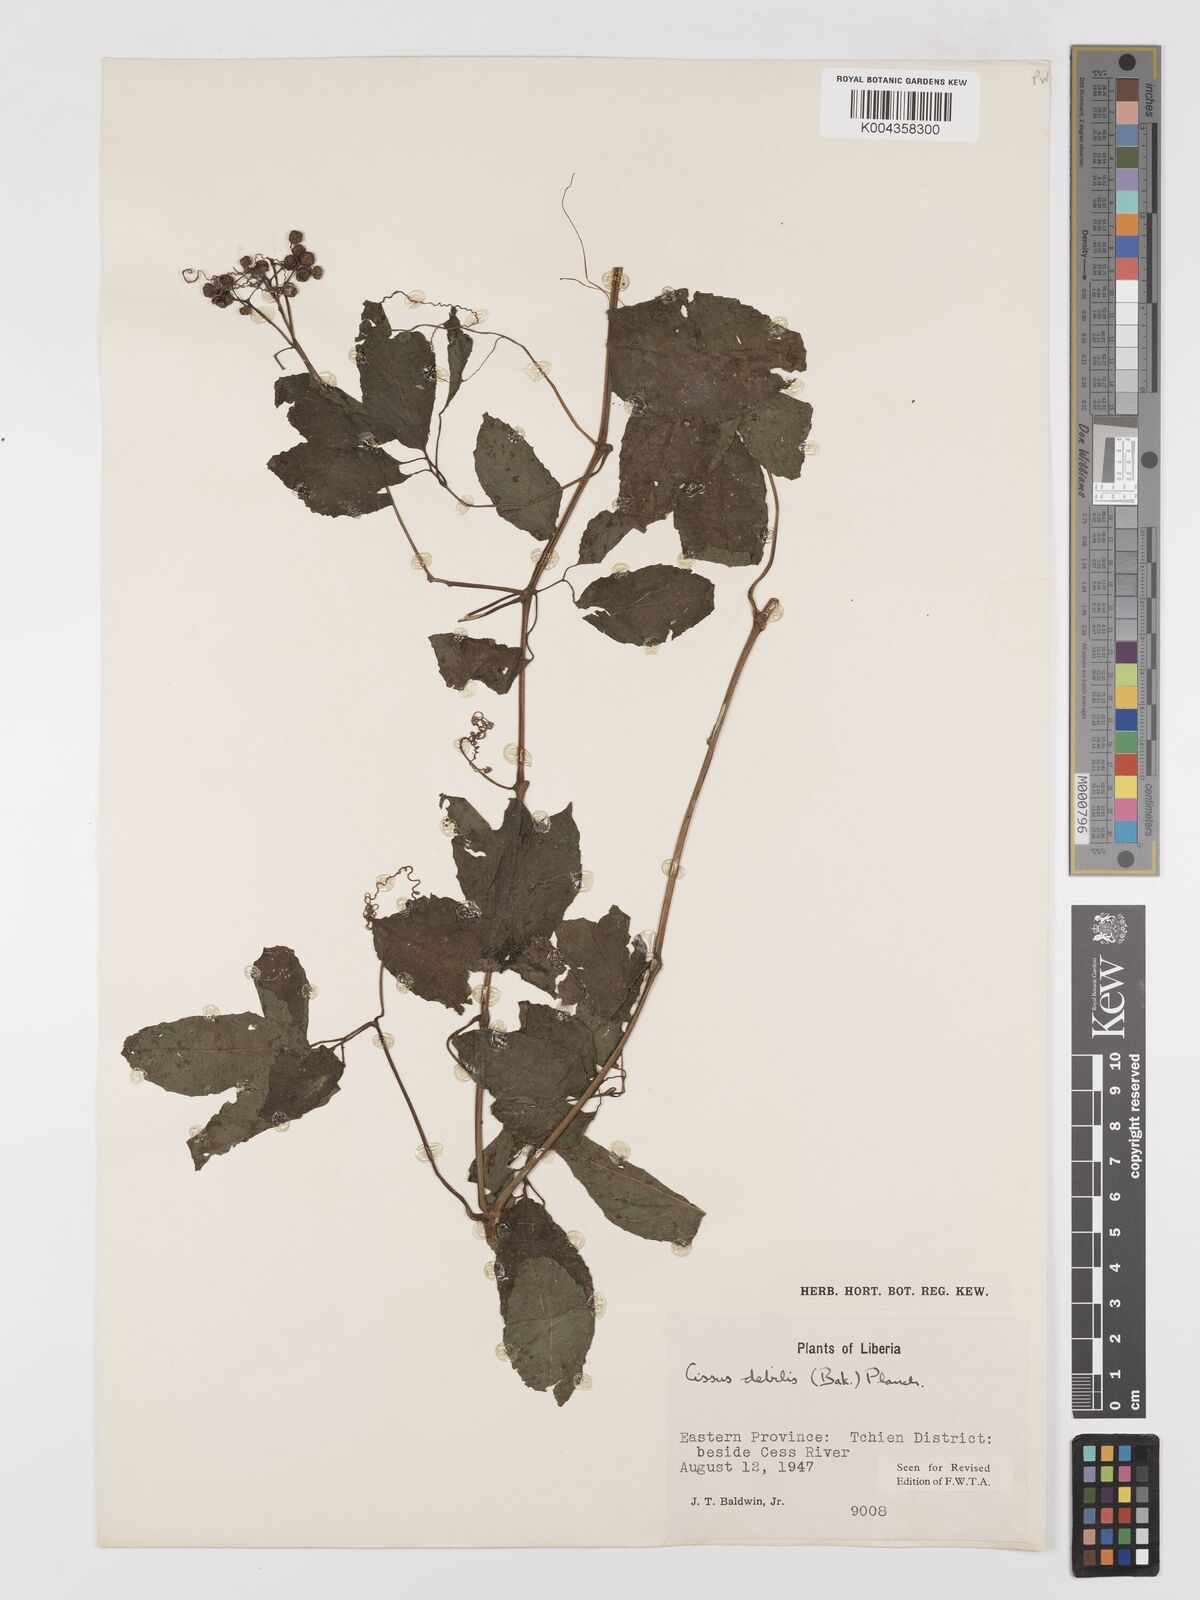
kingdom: Plantae
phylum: Tracheophyta
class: Magnoliopsida
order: Vitales
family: Vitaceae
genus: Afrocayratia
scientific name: Afrocayratia debilis
